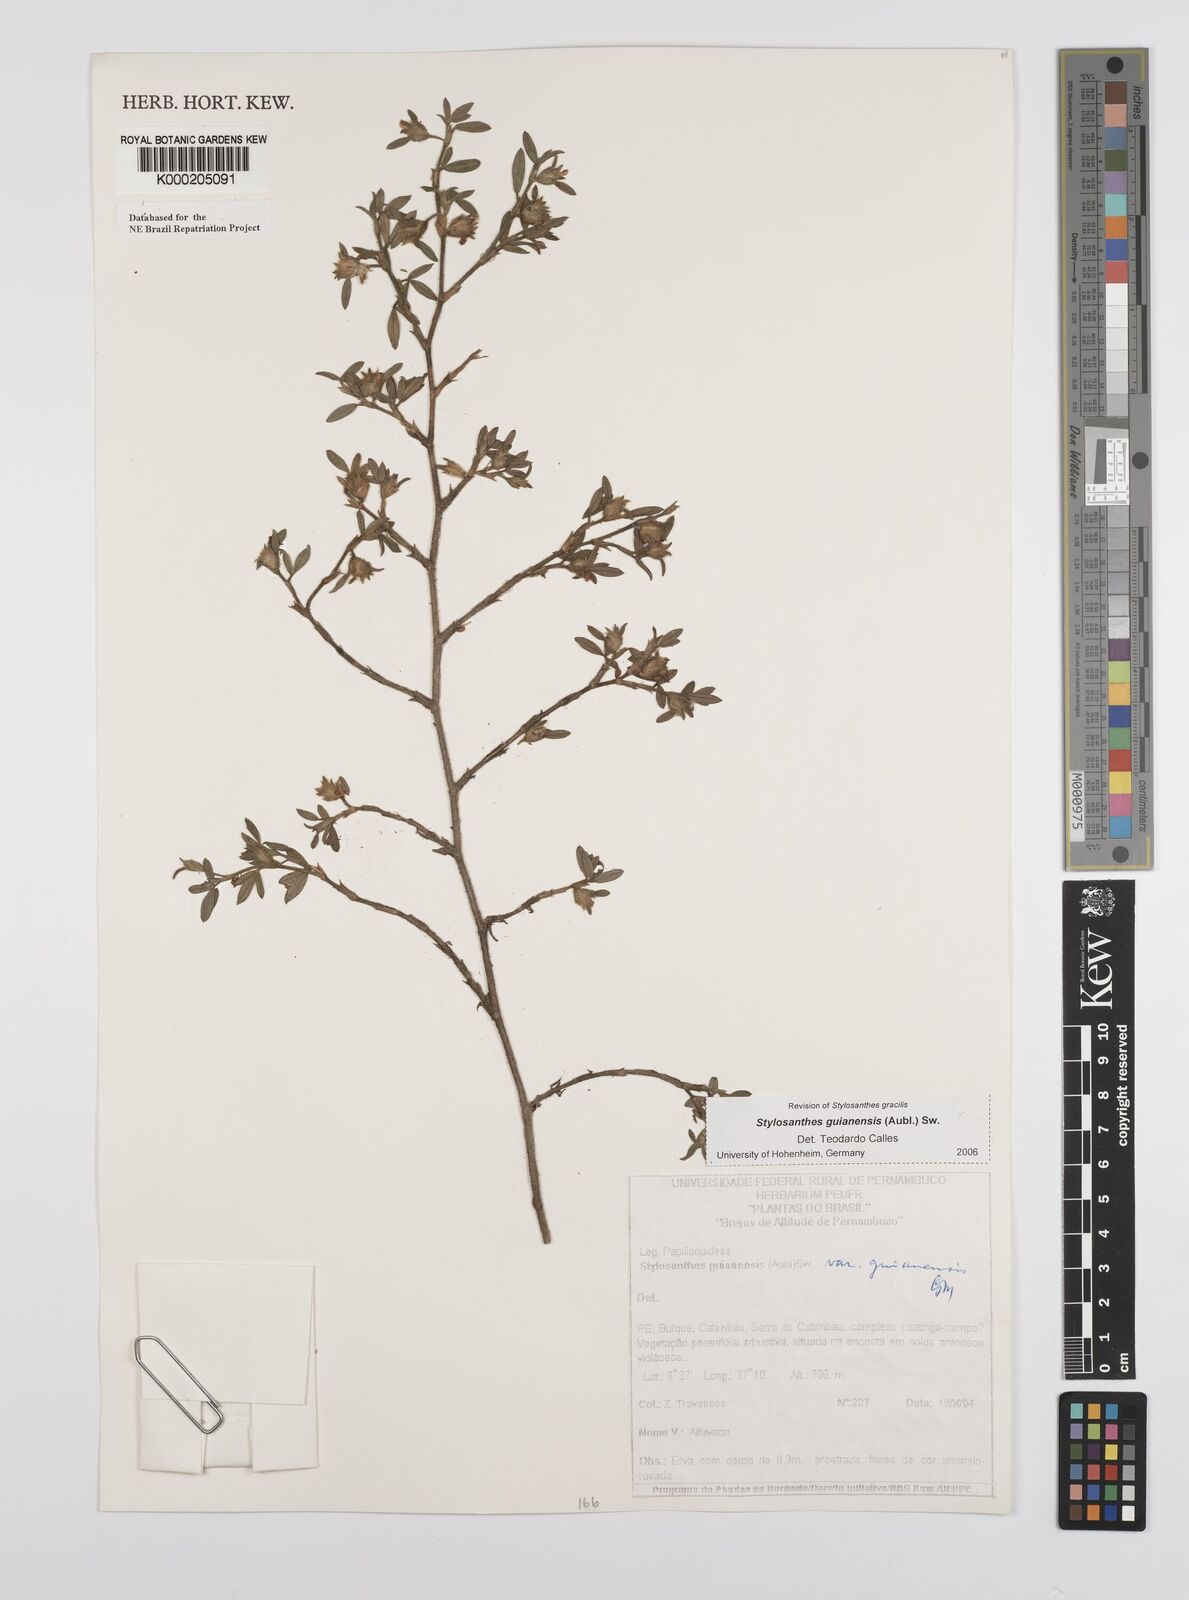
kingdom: Plantae
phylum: Tracheophyta
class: Magnoliopsida
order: Fabales
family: Fabaceae
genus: Stylosanthes
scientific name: Stylosanthes guianensis
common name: Pencil flower
